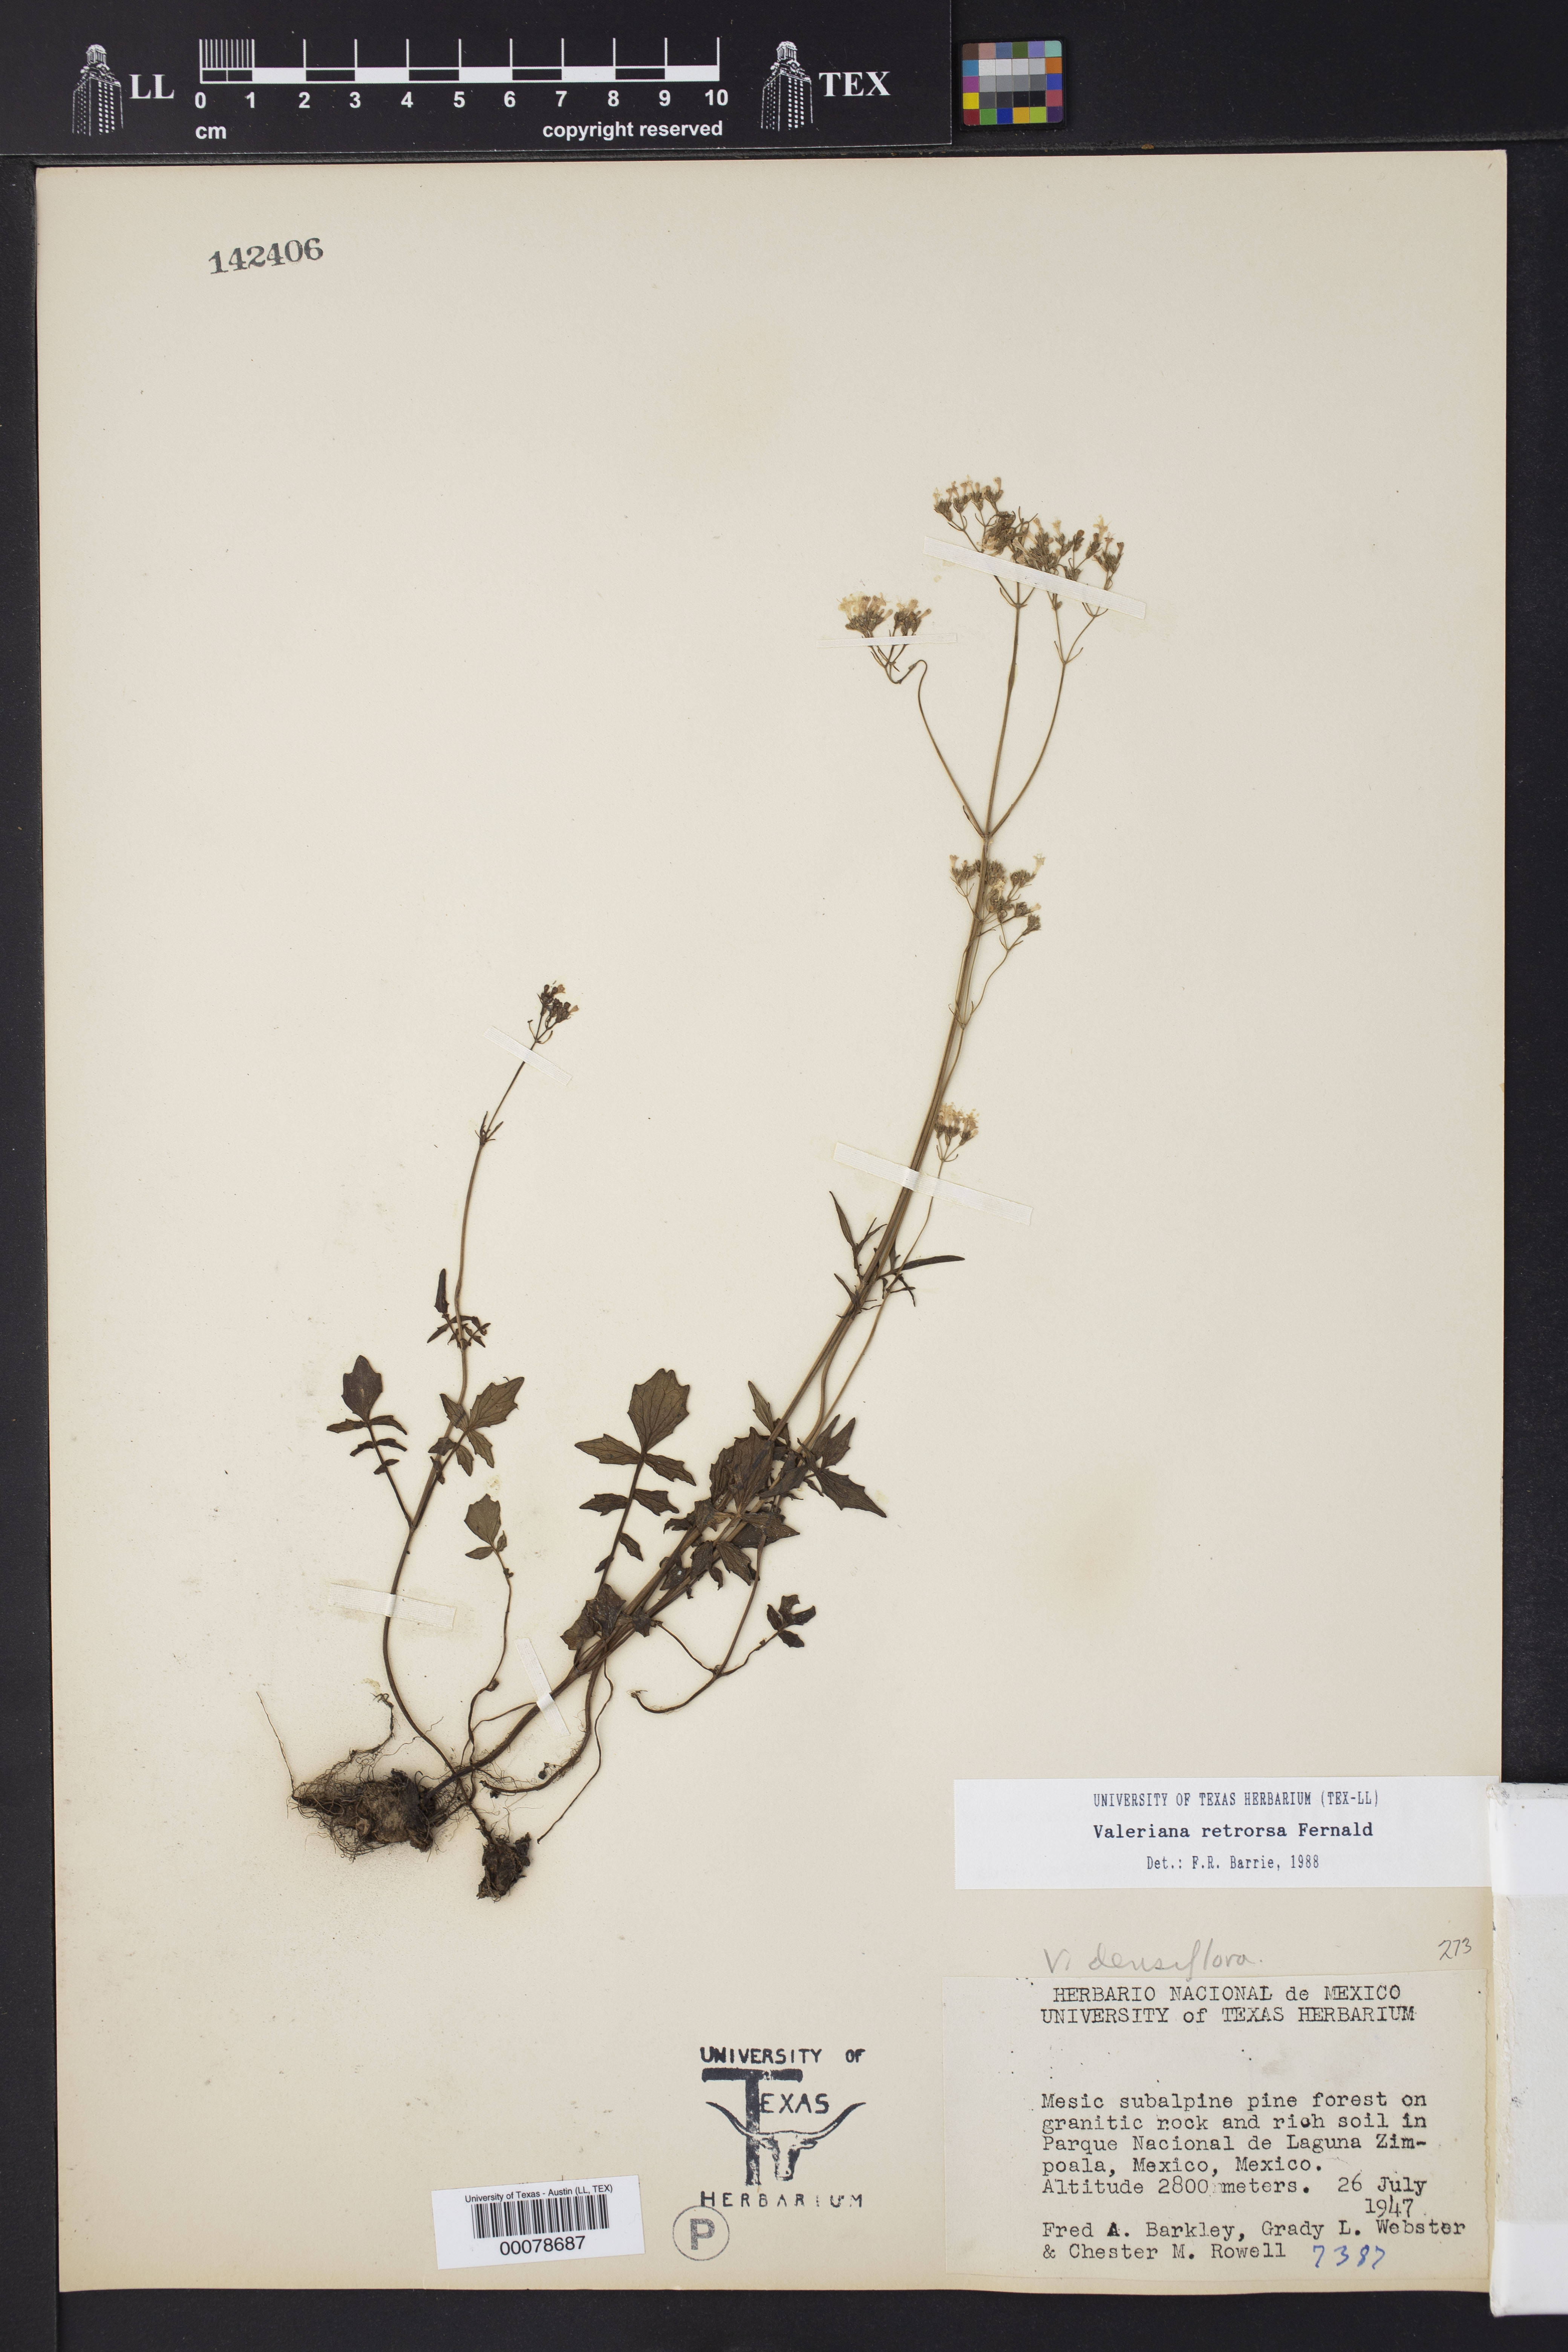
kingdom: Plantae
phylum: Tracheophyta
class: Magnoliopsida
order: Dipsacales
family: Caprifoliaceae
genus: Valeriana
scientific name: Valeriana densiflora
